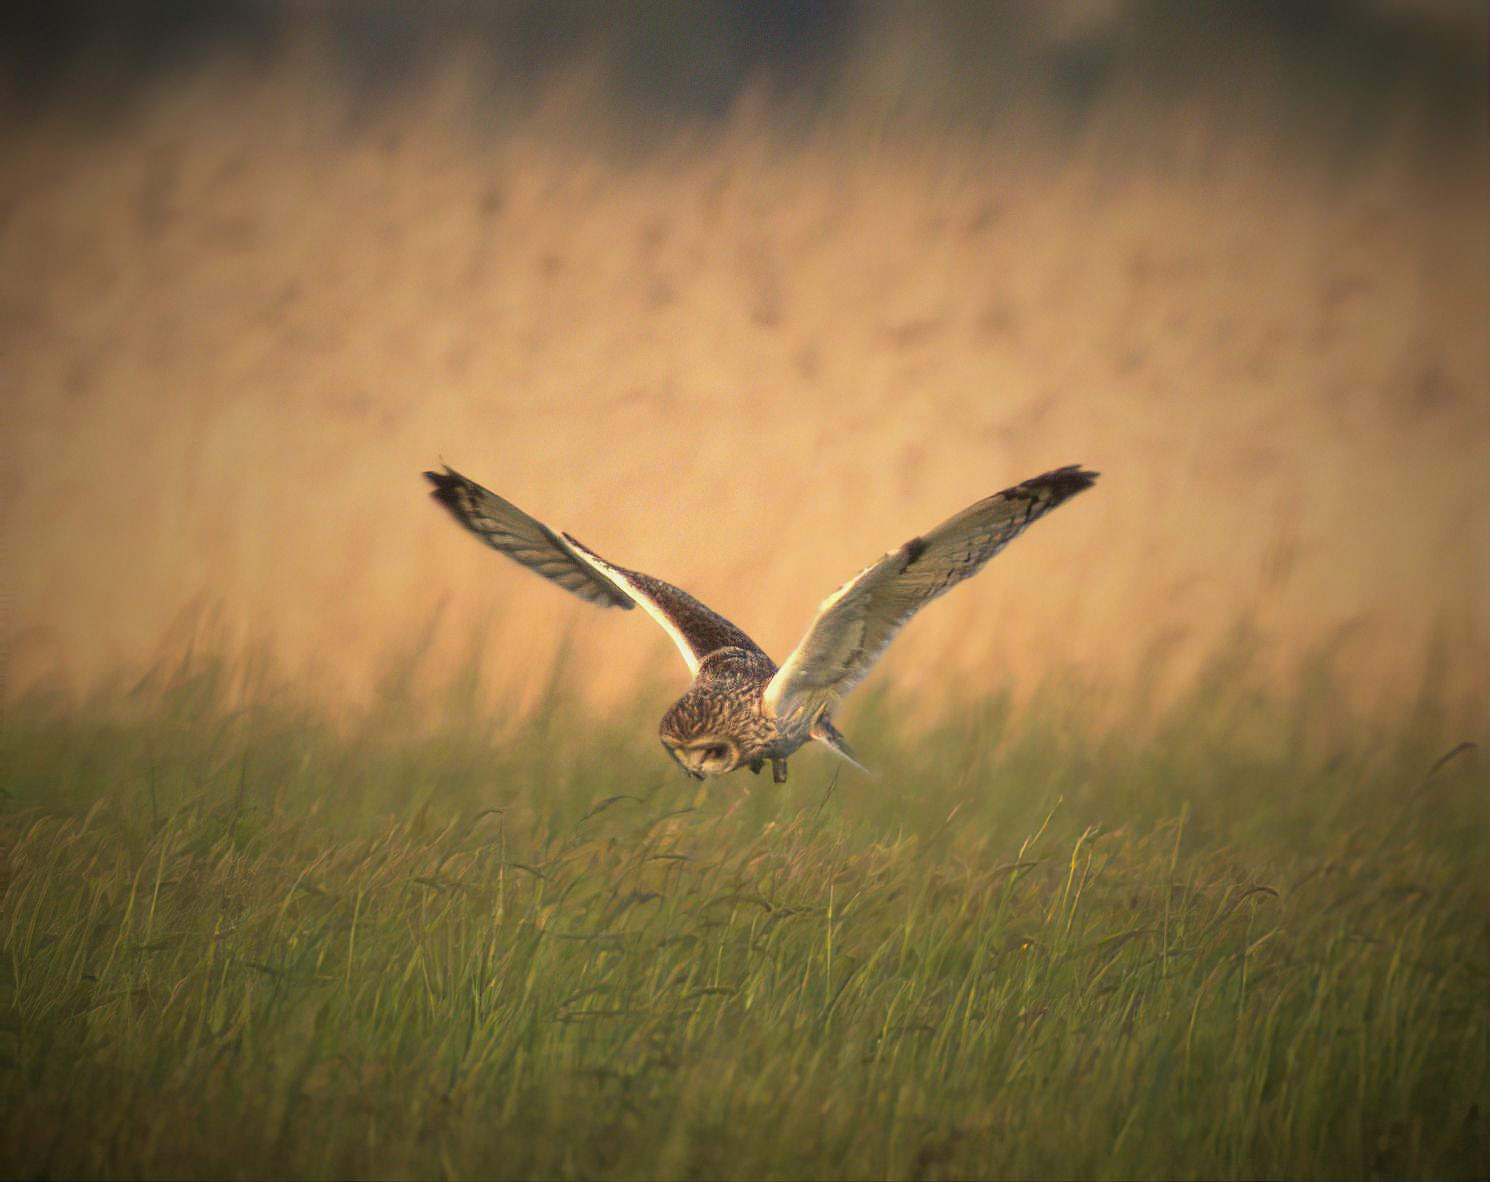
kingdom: Animalia
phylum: Chordata
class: Aves
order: Strigiformes
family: Strigidae
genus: Asio
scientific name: Asio flammeus
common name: Mosehornugle
